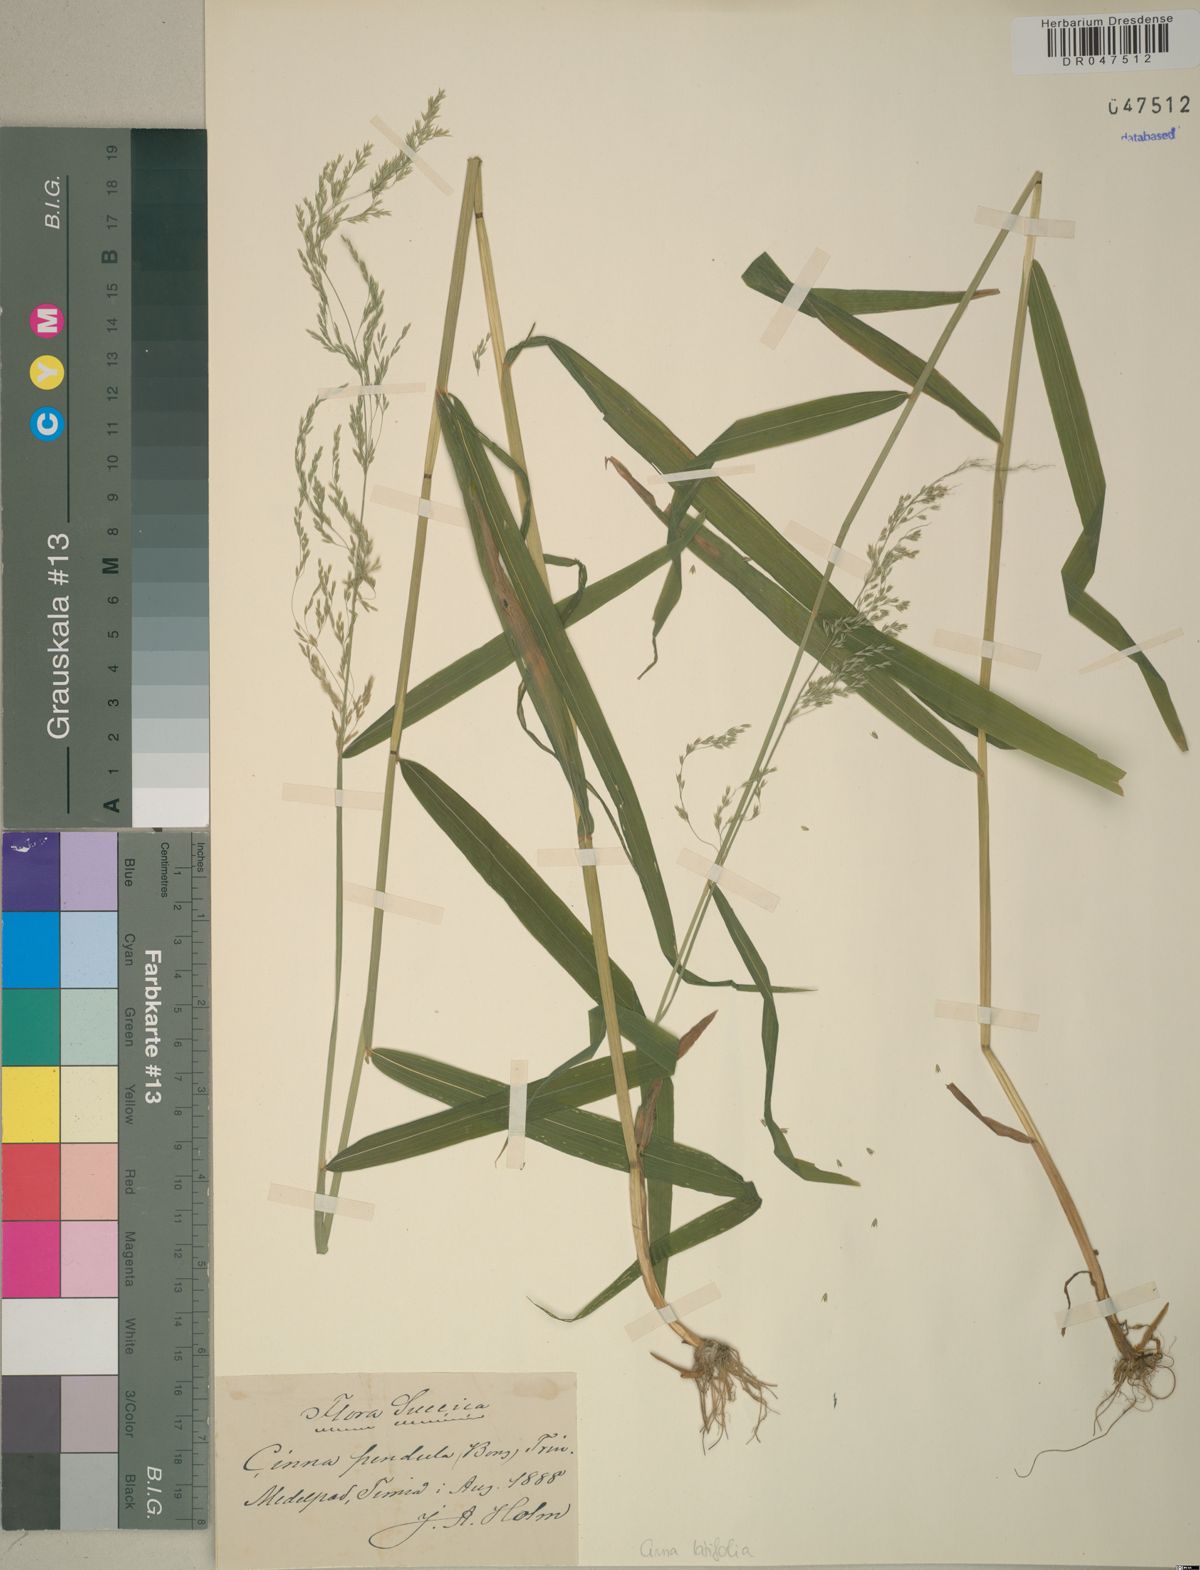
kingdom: Plantae
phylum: Tracheophyta
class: Liliopsida
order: Poales
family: Poaceae
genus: Cinna
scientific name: Cinna latifolia
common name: Drooping woodreed
